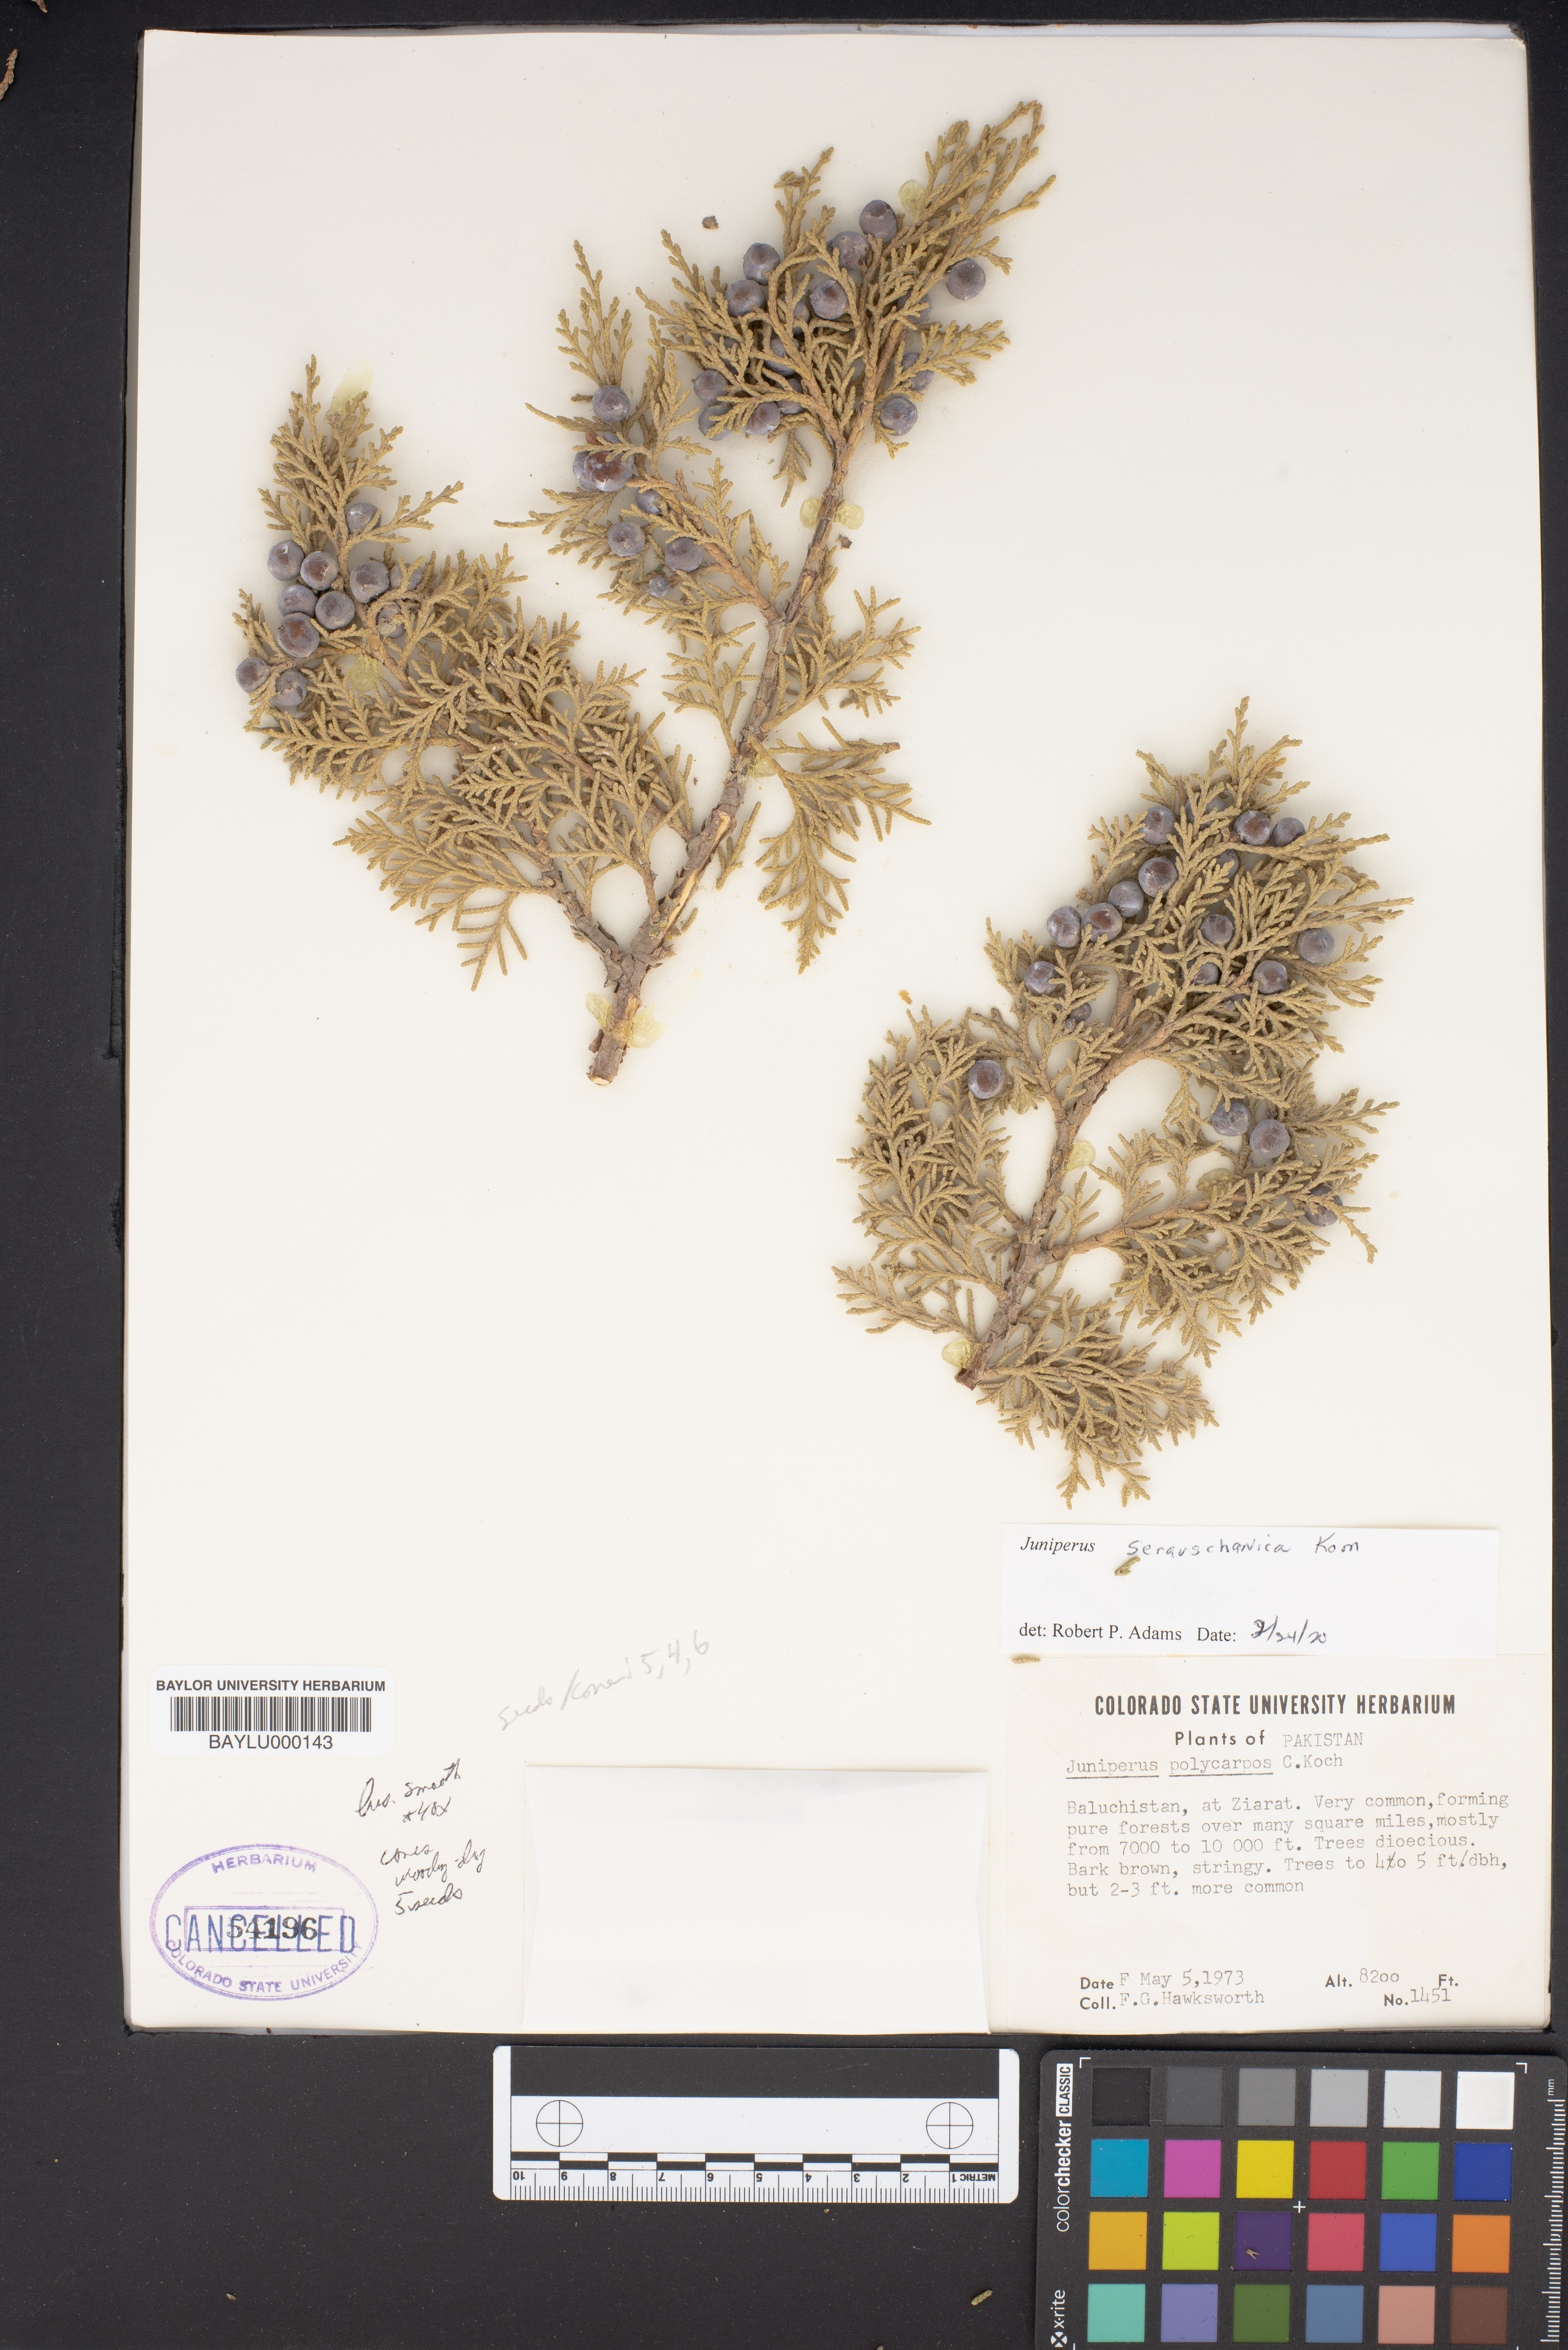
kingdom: Plantae
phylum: Tracheophyta
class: Pinopsida
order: Pinales
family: Cupressaceae
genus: Juniperus
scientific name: Juniperus excelsa
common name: Crimean juniper
